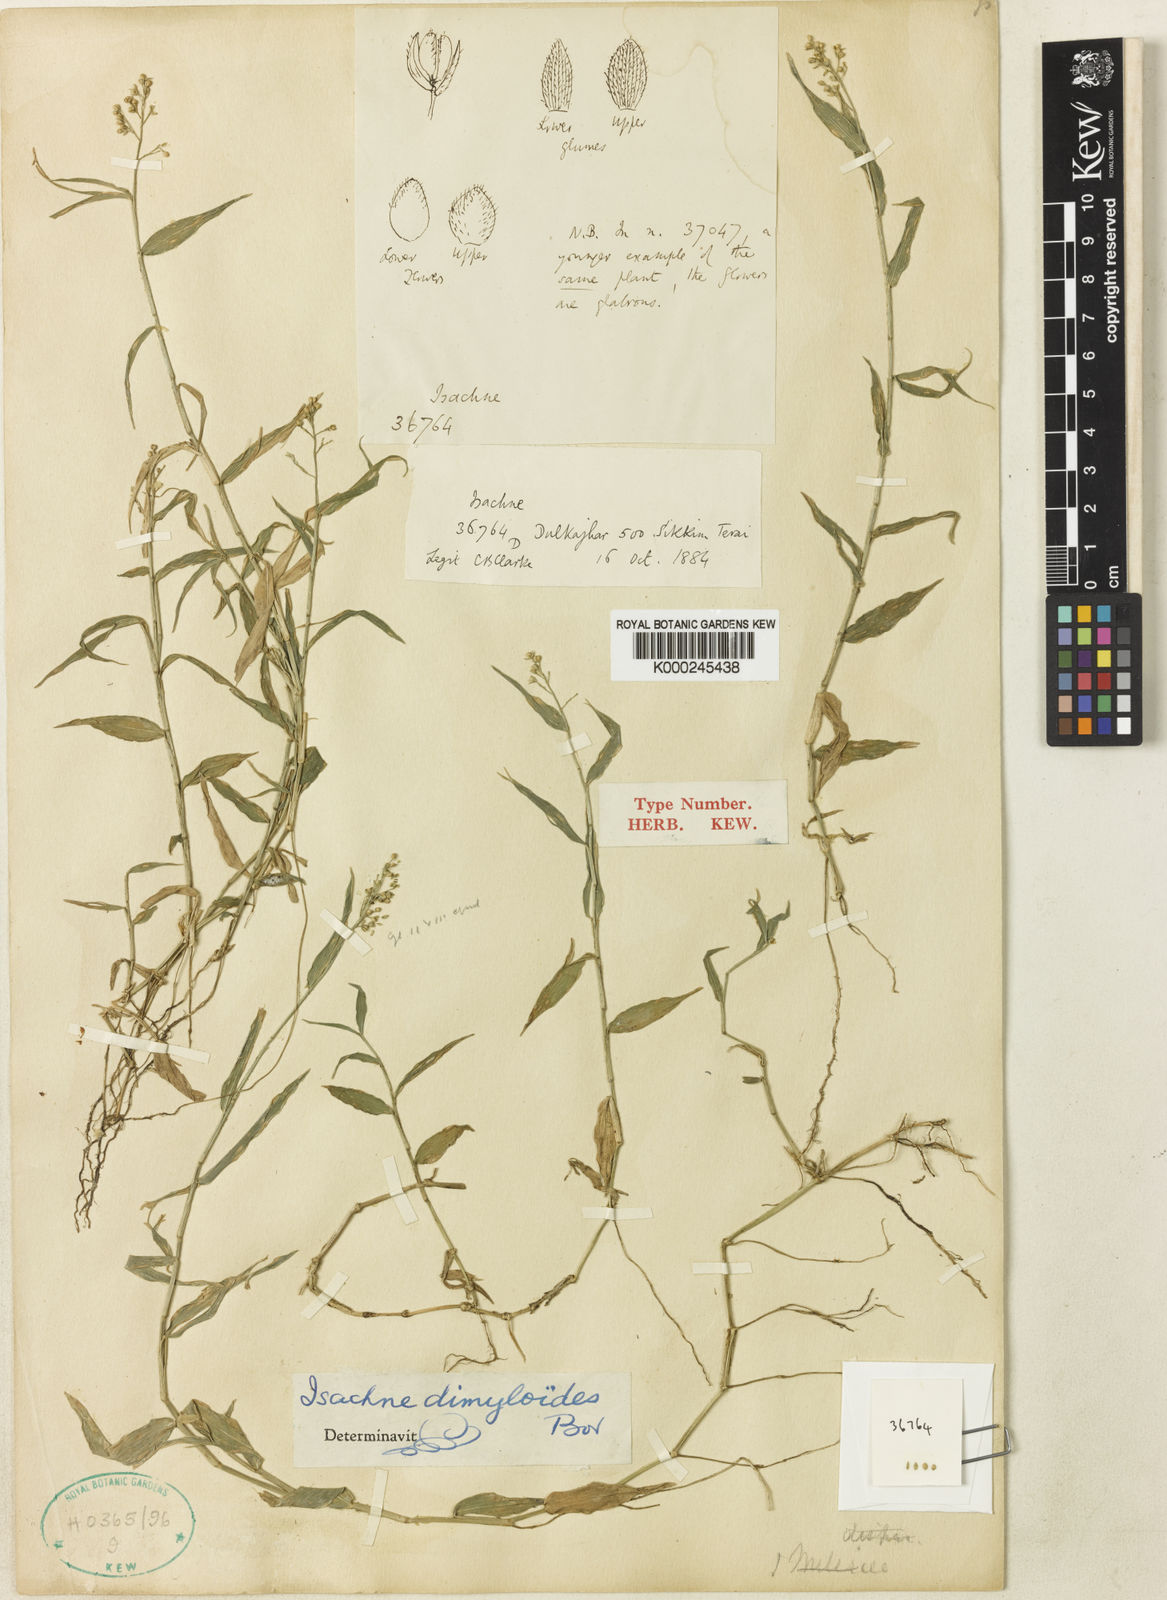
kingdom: Plantae
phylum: Tracheophyta
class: Liliopsida
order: Poales
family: Poaceae
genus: Isachne
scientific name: Isachne dimyloides
